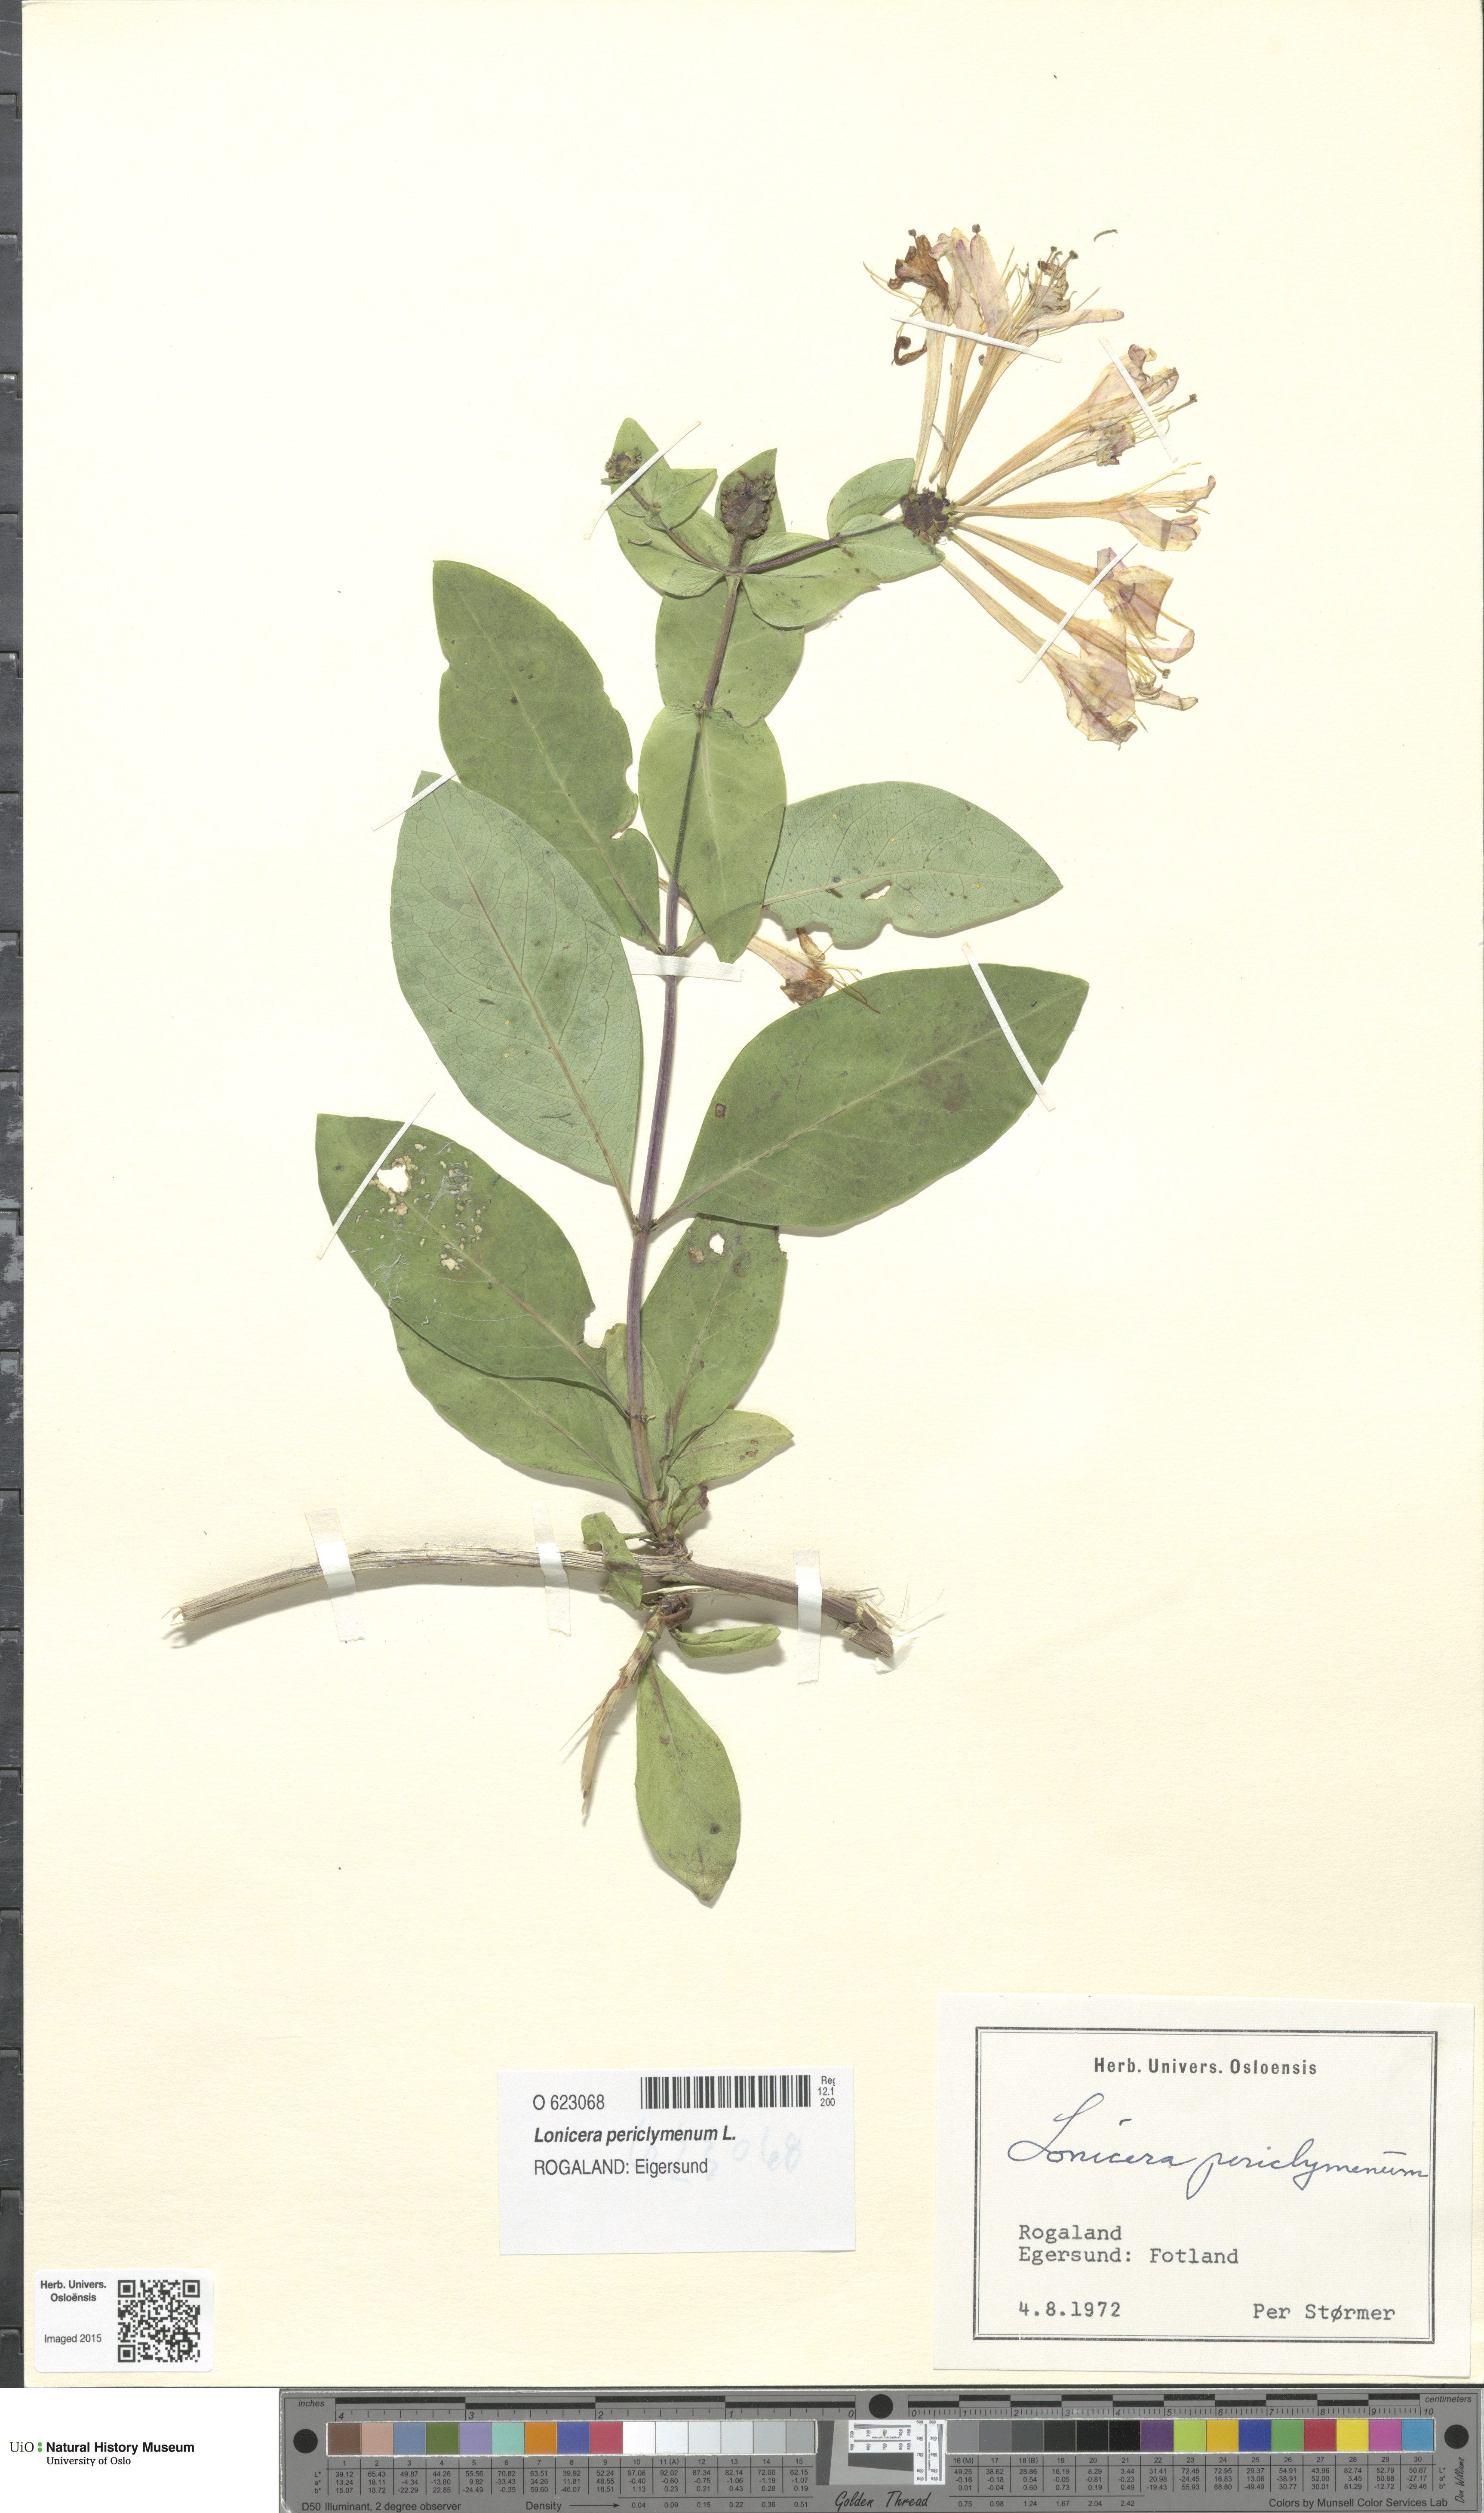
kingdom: Plantae
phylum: Tracheophyta
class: Magnoliopsida
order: Dipsacales
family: Caprifoliaceae
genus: Lonicera
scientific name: Lonicera periclymenum
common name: European honeysuckle
